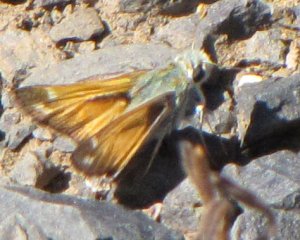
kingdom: Animalia
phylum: Arthropoda
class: Insecta
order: Lepidoptera
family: Hesperiidae
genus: Hesperia
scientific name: Hesperia juba
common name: Juba Skipper
